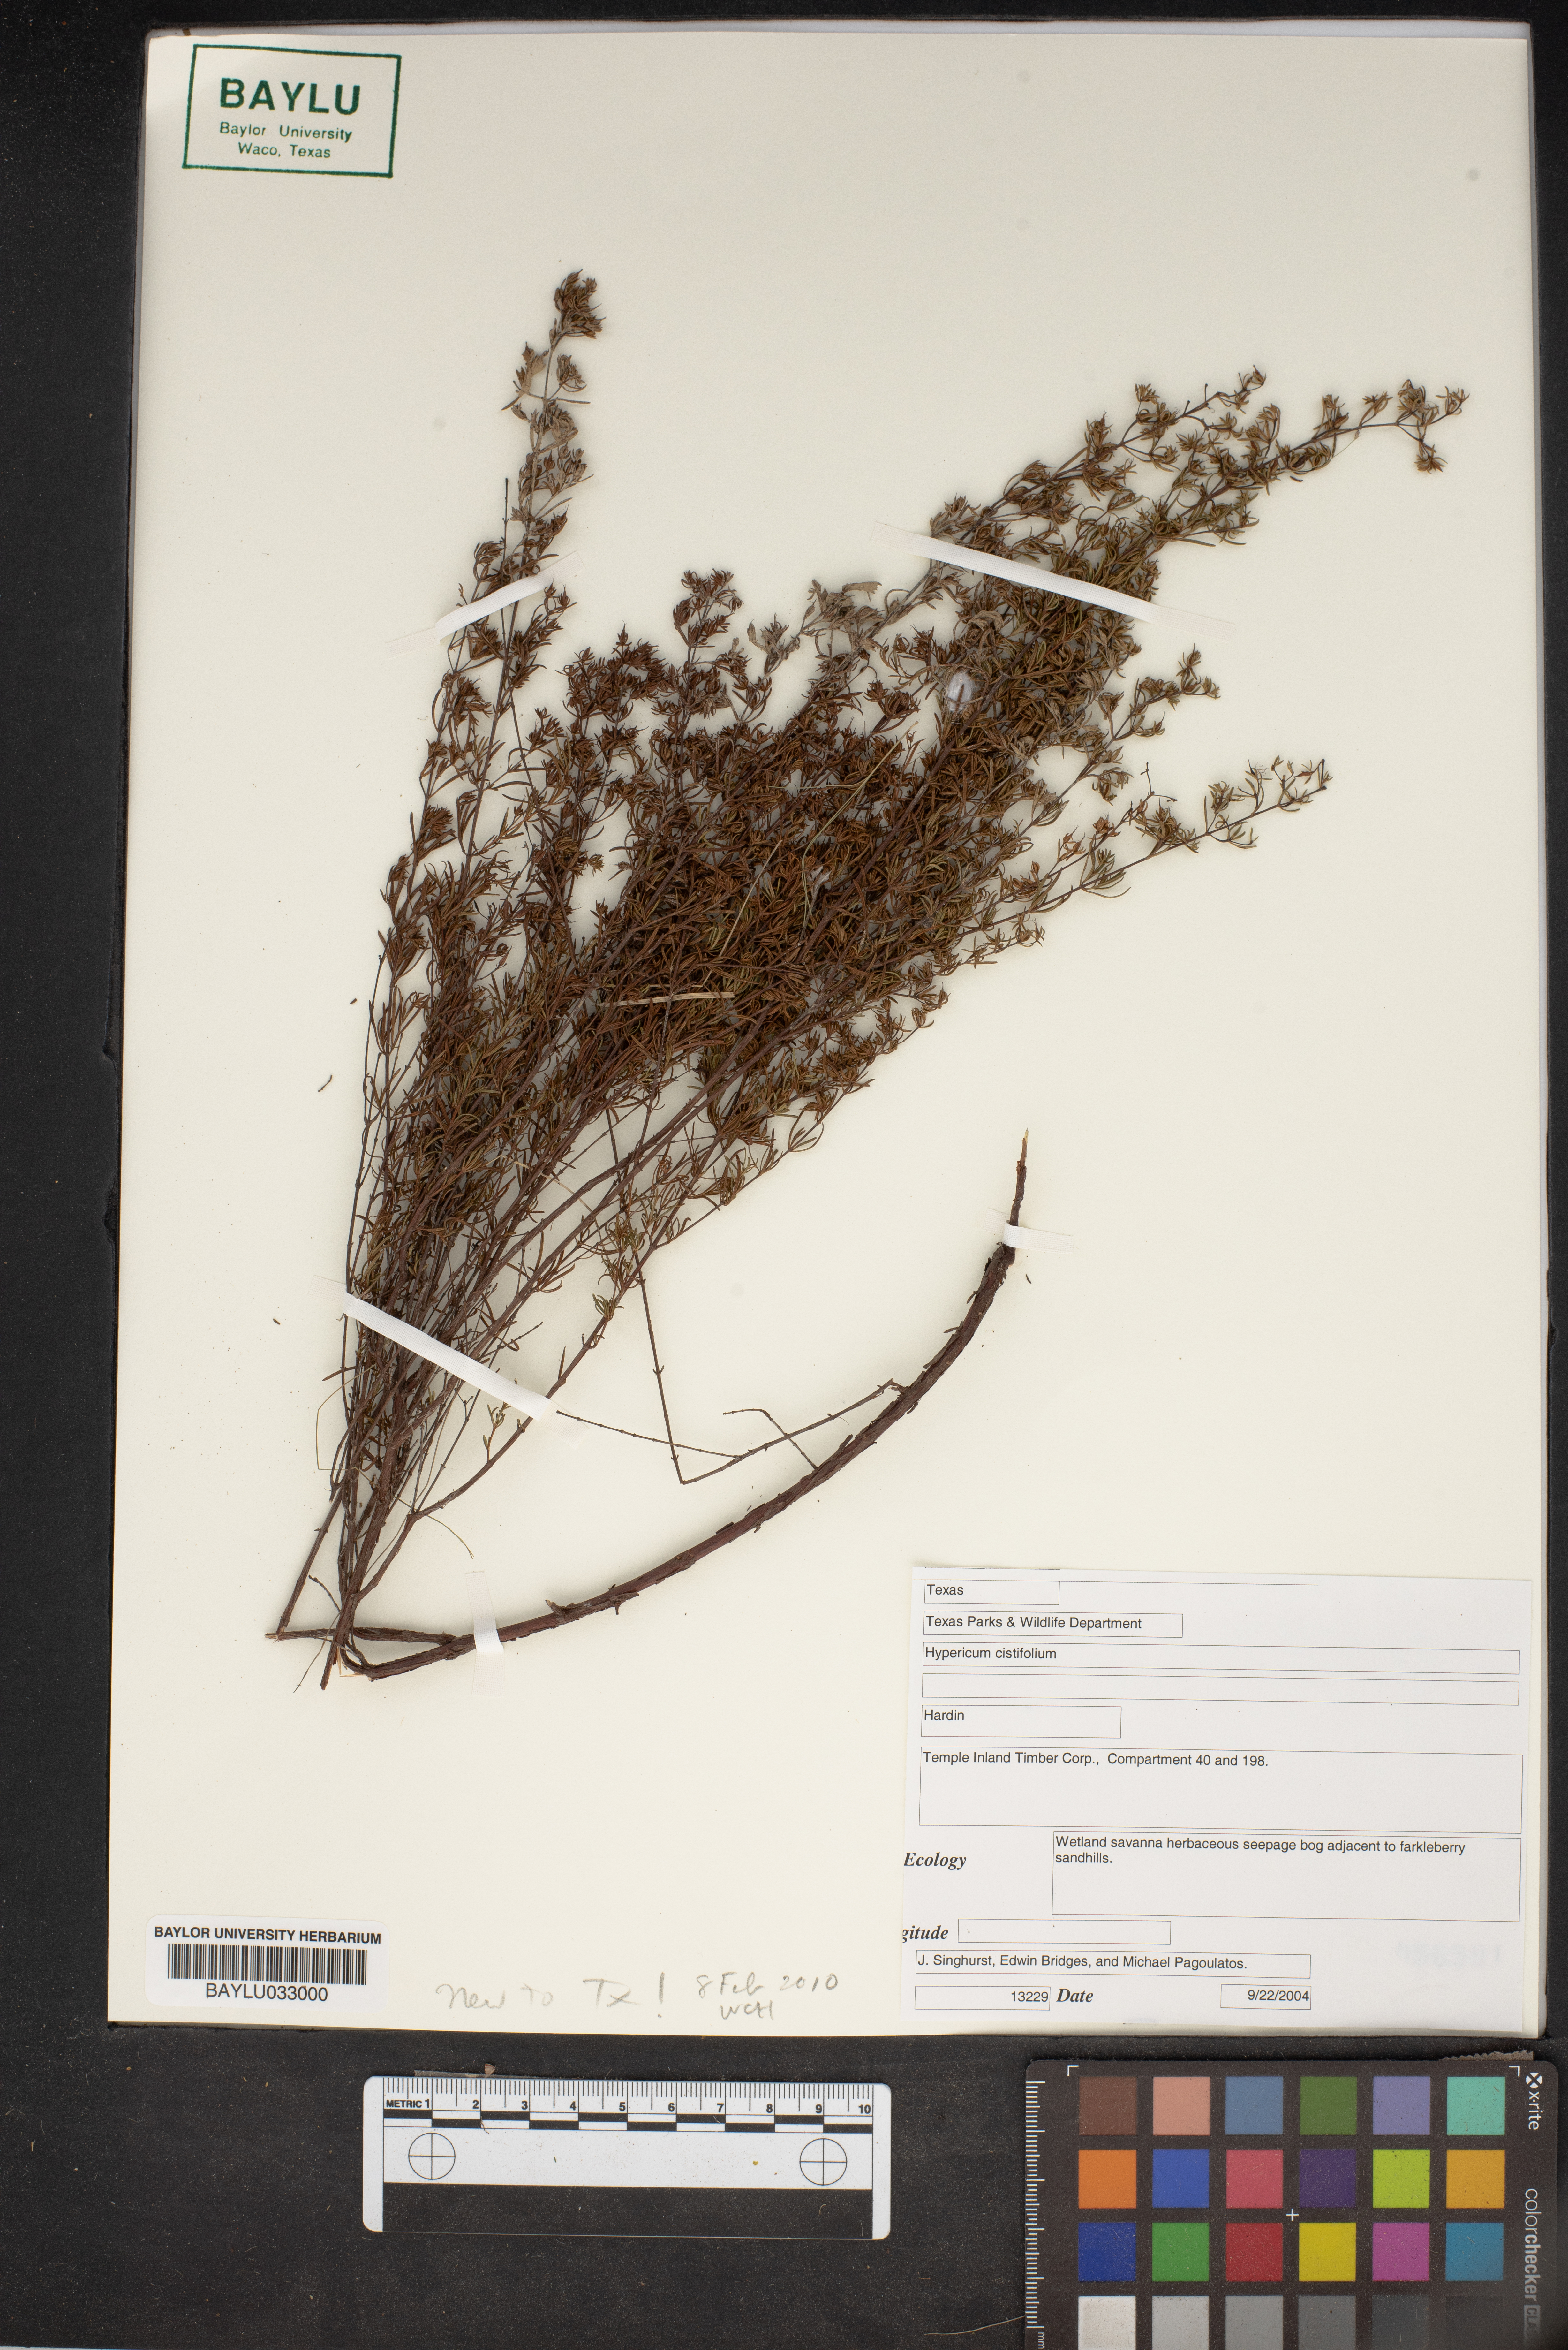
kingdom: Plantae
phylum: Tracheophyta
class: Magnoliopsida
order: Malpighiales
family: Hypericaceae
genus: Hypericum
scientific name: Hypericum cistifolium
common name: Round-pod st. john's-wort
